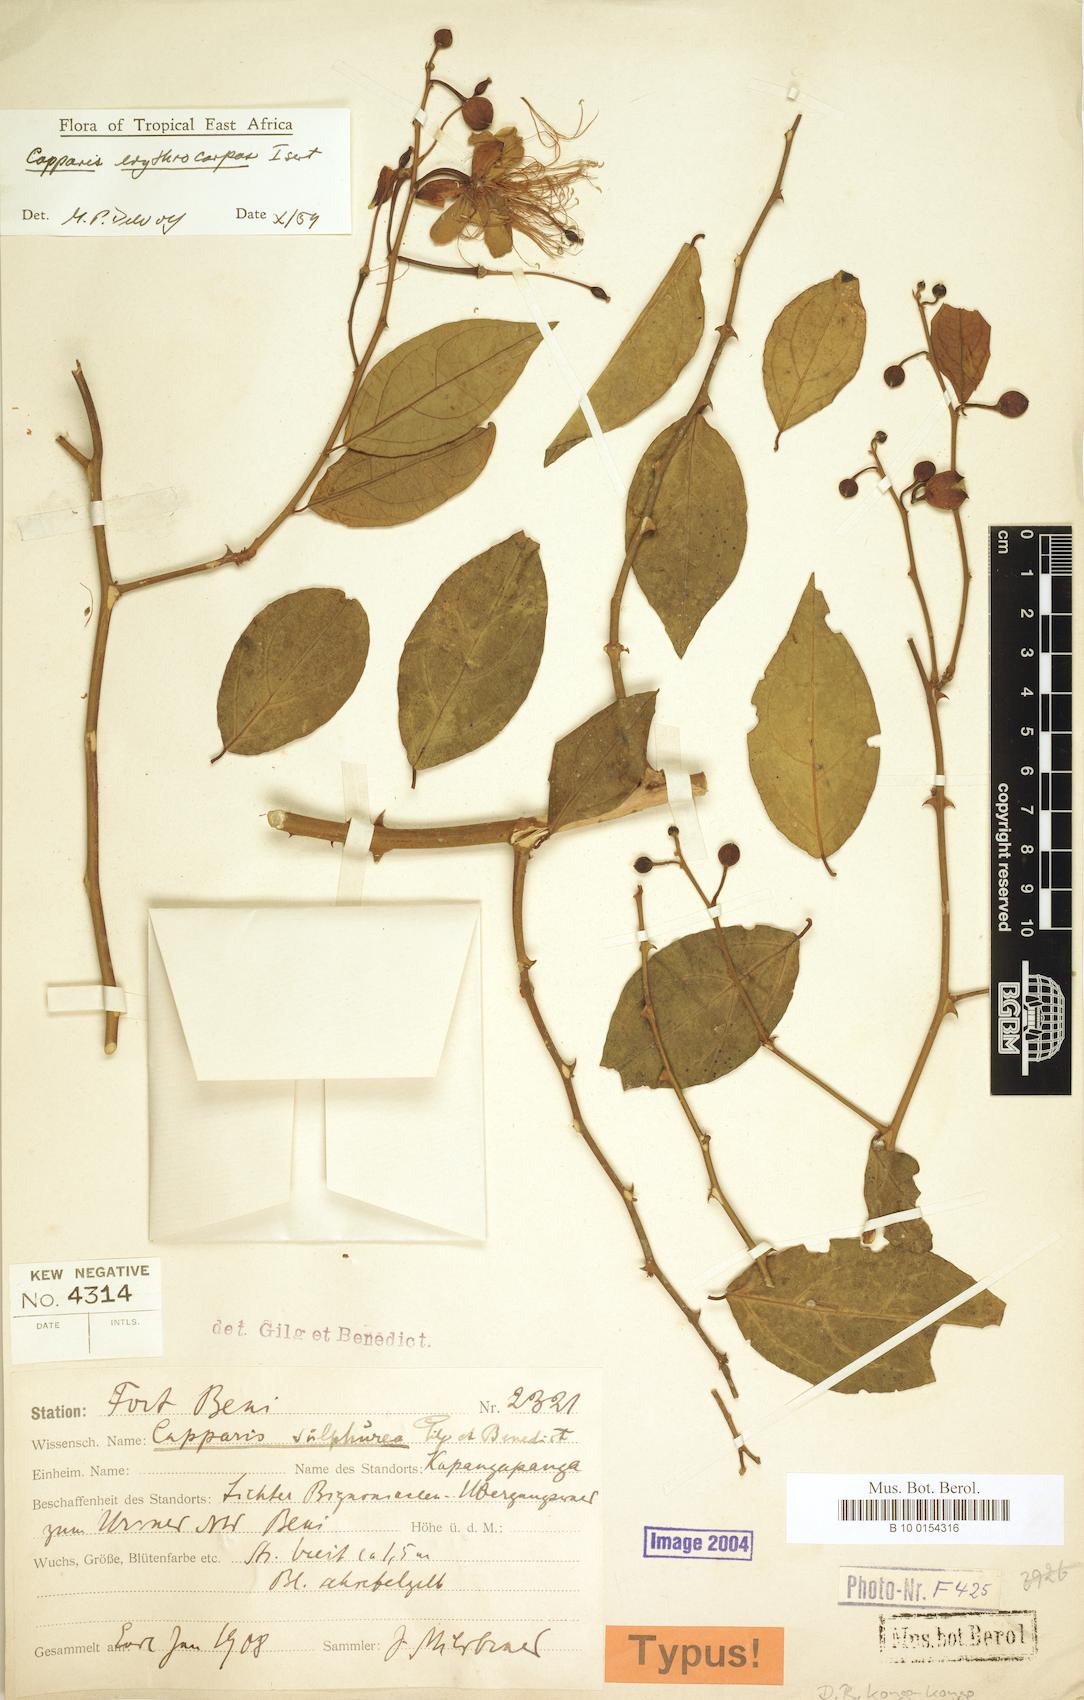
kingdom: Plantae
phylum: Tracheophyta
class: Magnoliopsida
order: Brassicales
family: Capparaceae
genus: Capparis
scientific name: Capparis erythrocarpos
